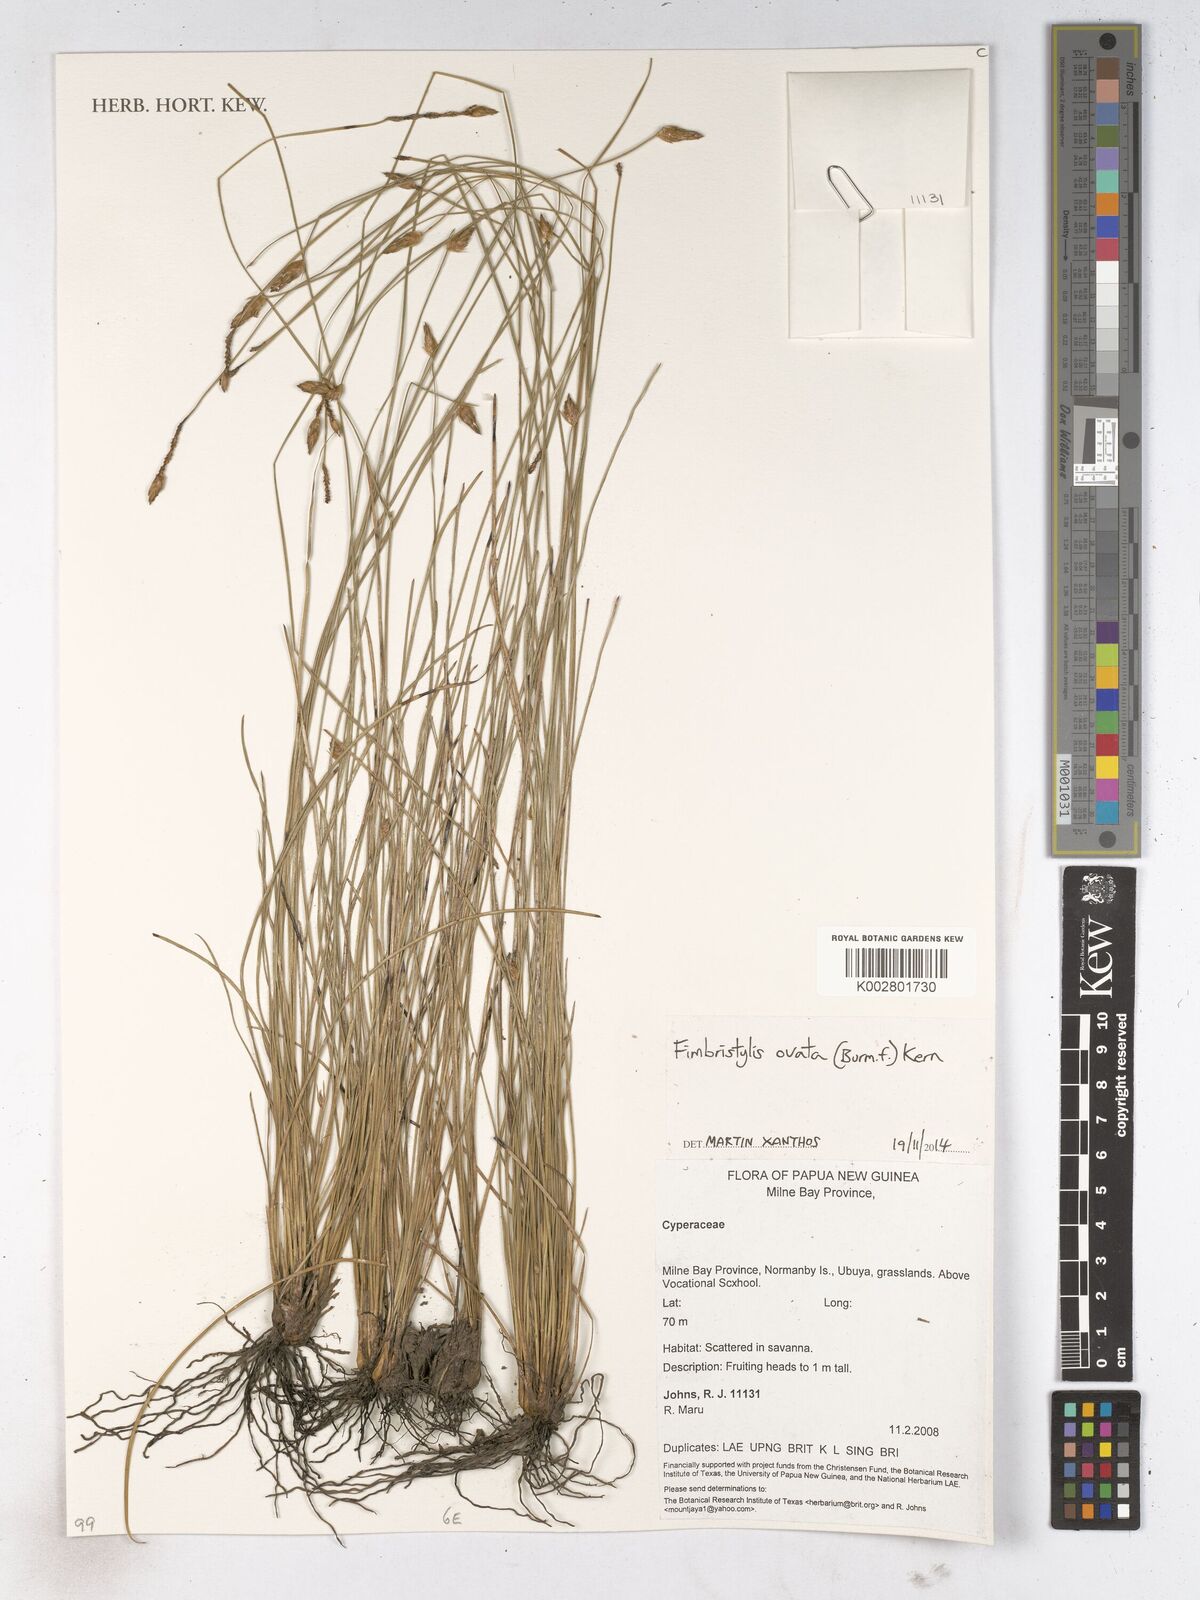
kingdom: Plantae
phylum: Tracheophyta
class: Liliopsida
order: Poales
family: Cyperaceae
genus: Abildgaardia
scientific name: Abildgaardia ovata
